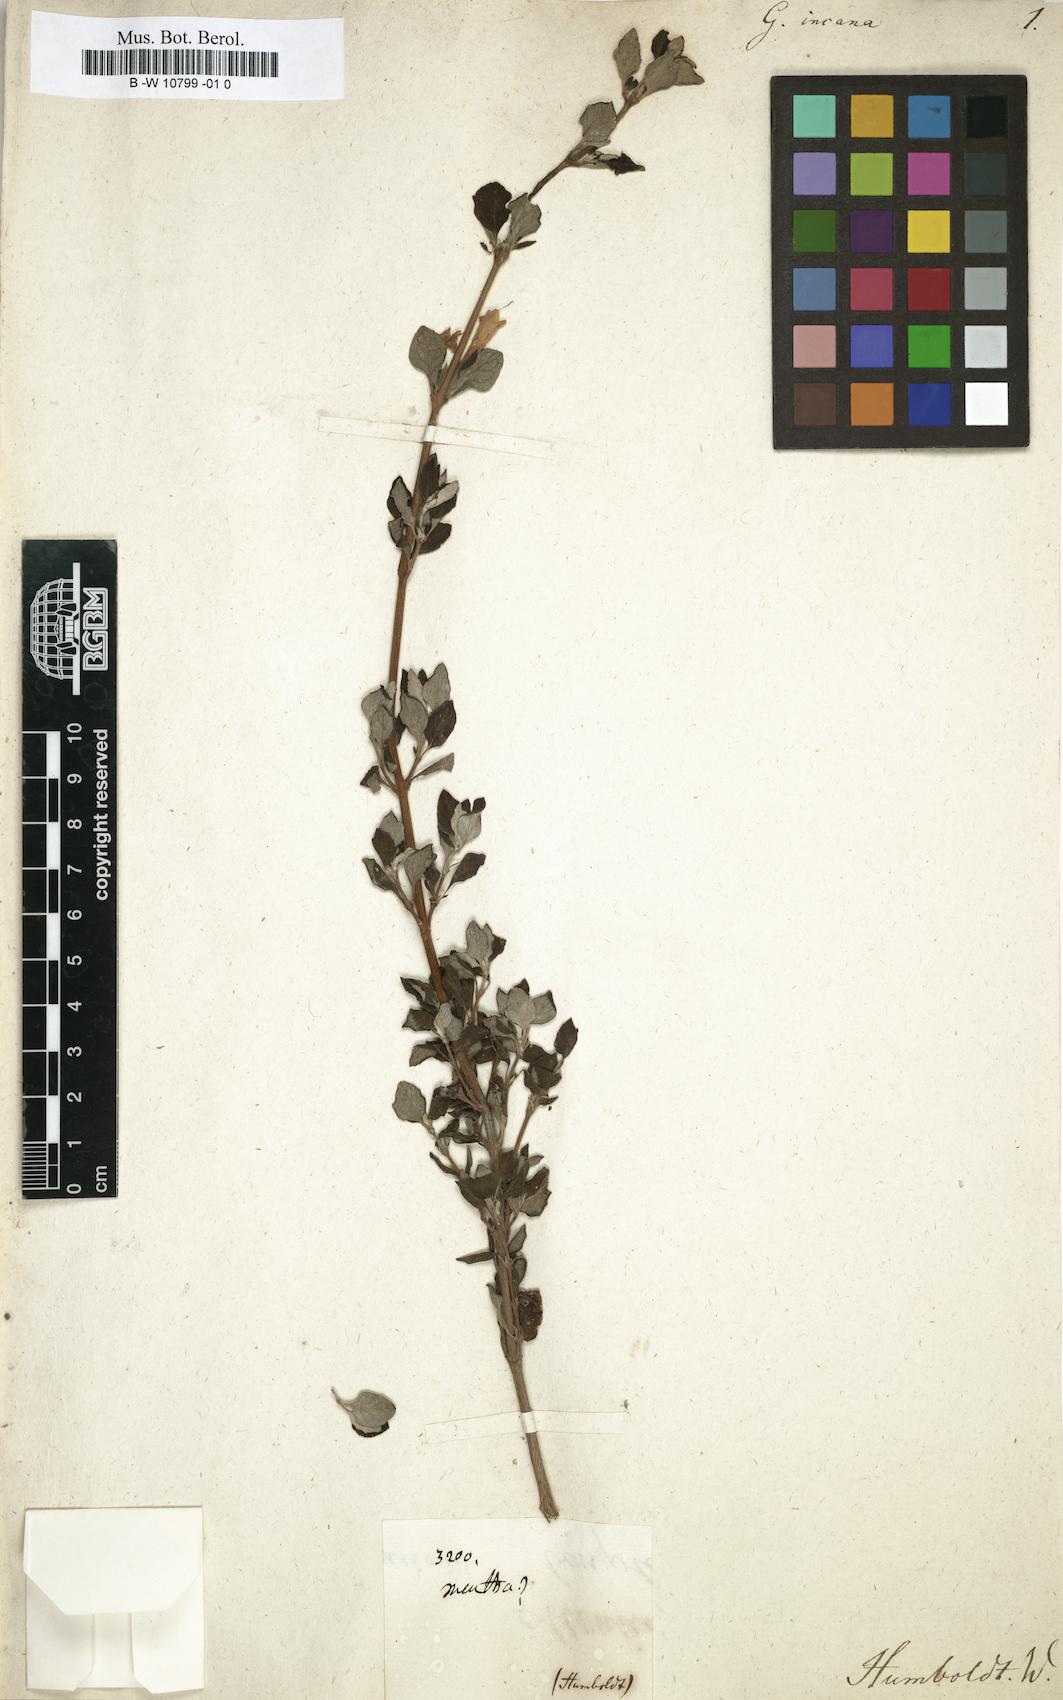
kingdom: Plantae
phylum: Tracheophyta
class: Magnoliopsida
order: Lamiales
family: Lamiaceae
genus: Clinopodium
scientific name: Clinopodium
